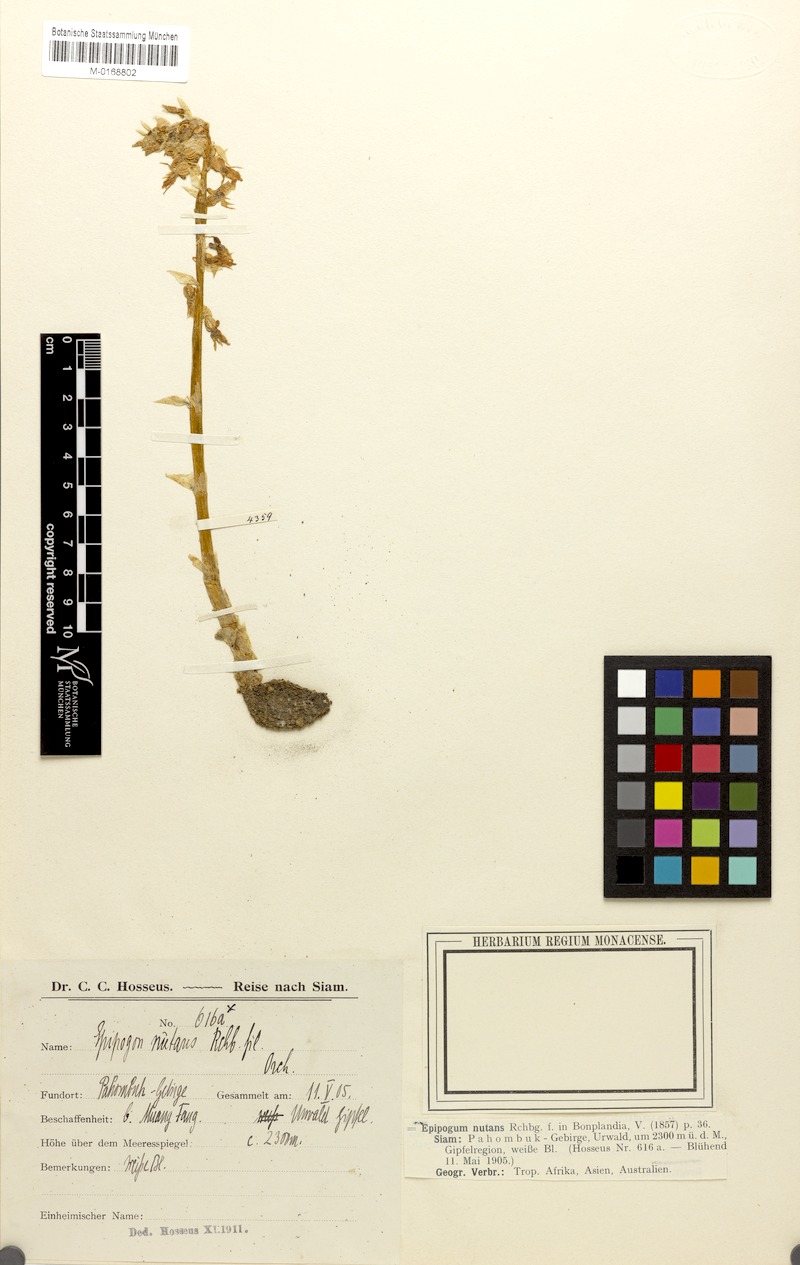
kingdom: Plantae
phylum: Tracheophyta
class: Liliopsida
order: Asparagales
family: Orchidaceae
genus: Epipogium
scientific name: Epipogium roseum
